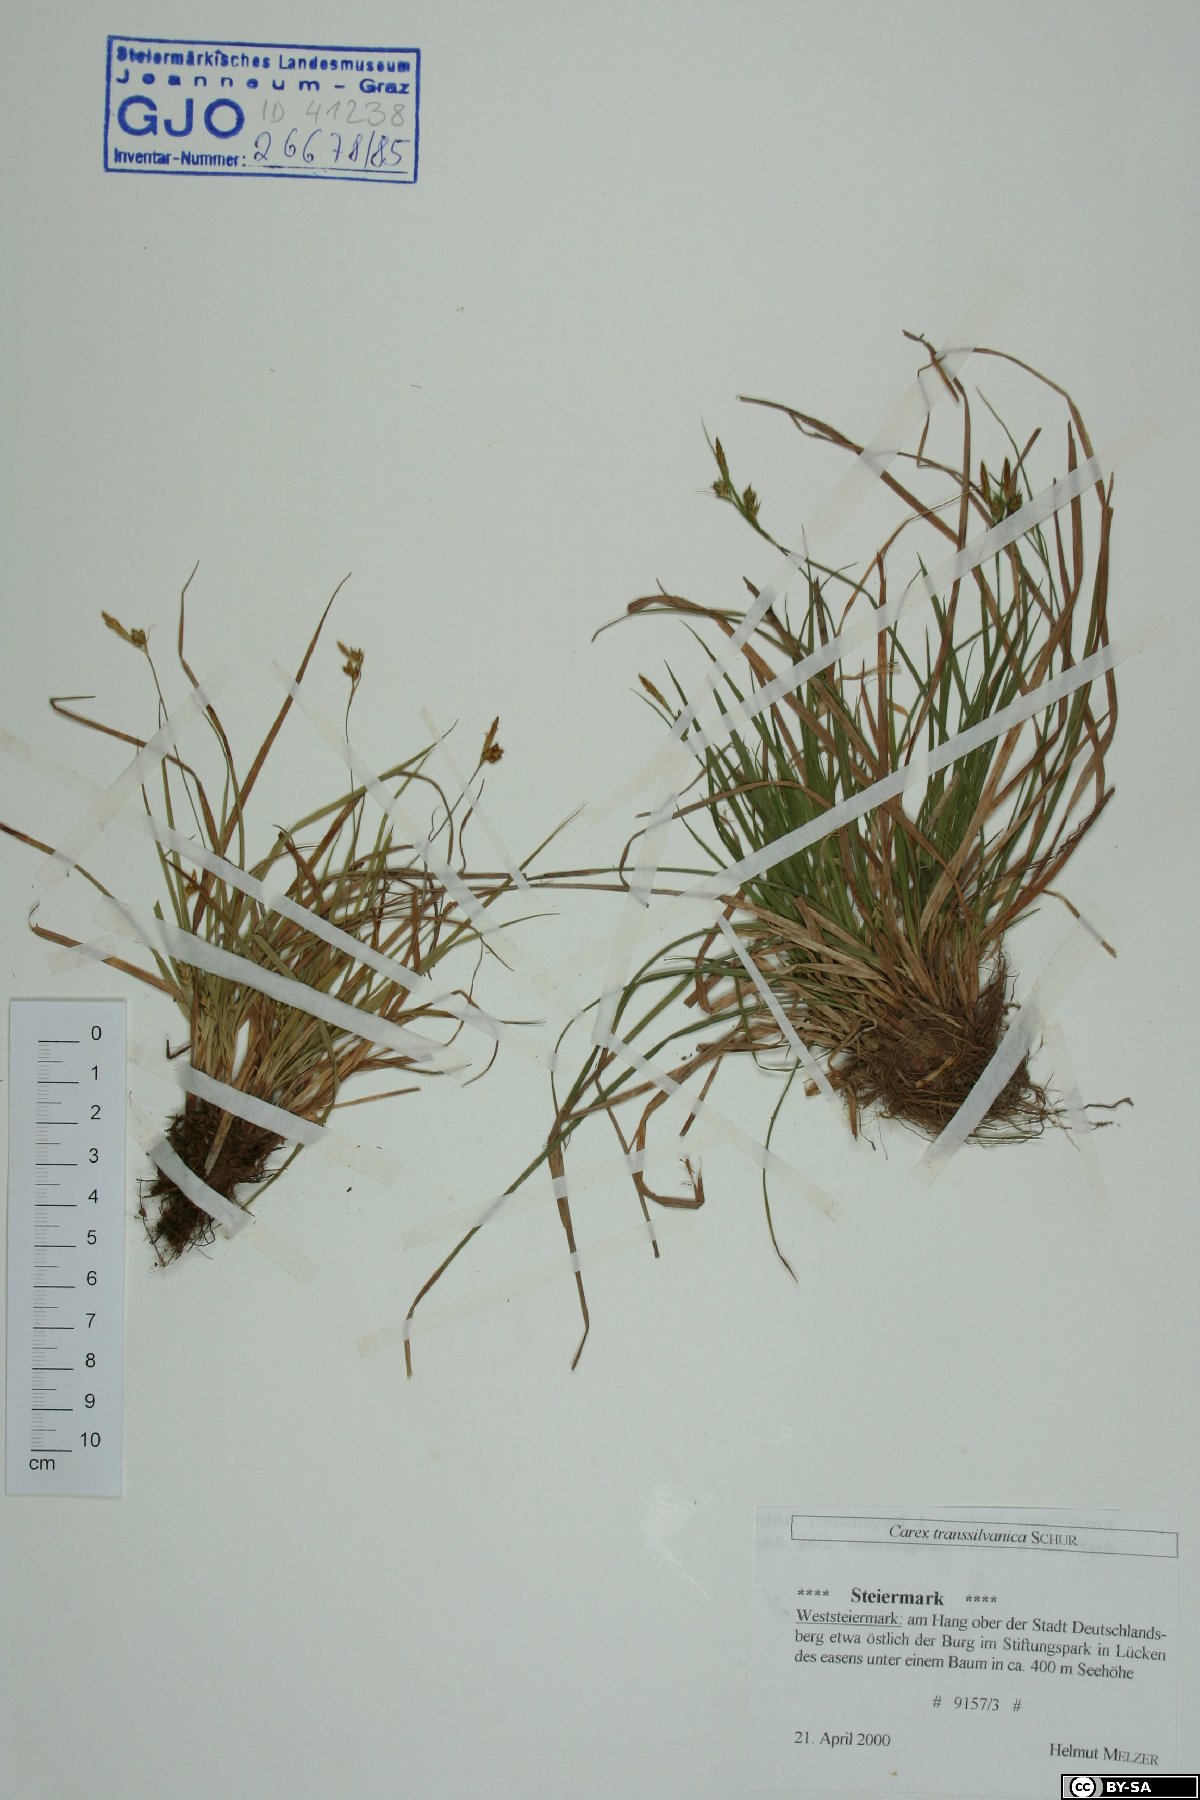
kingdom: Plantae
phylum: Tracheophyta
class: Liliopsida
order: Poales
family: Cyperaceae
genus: Carex
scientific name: Carex depressa
